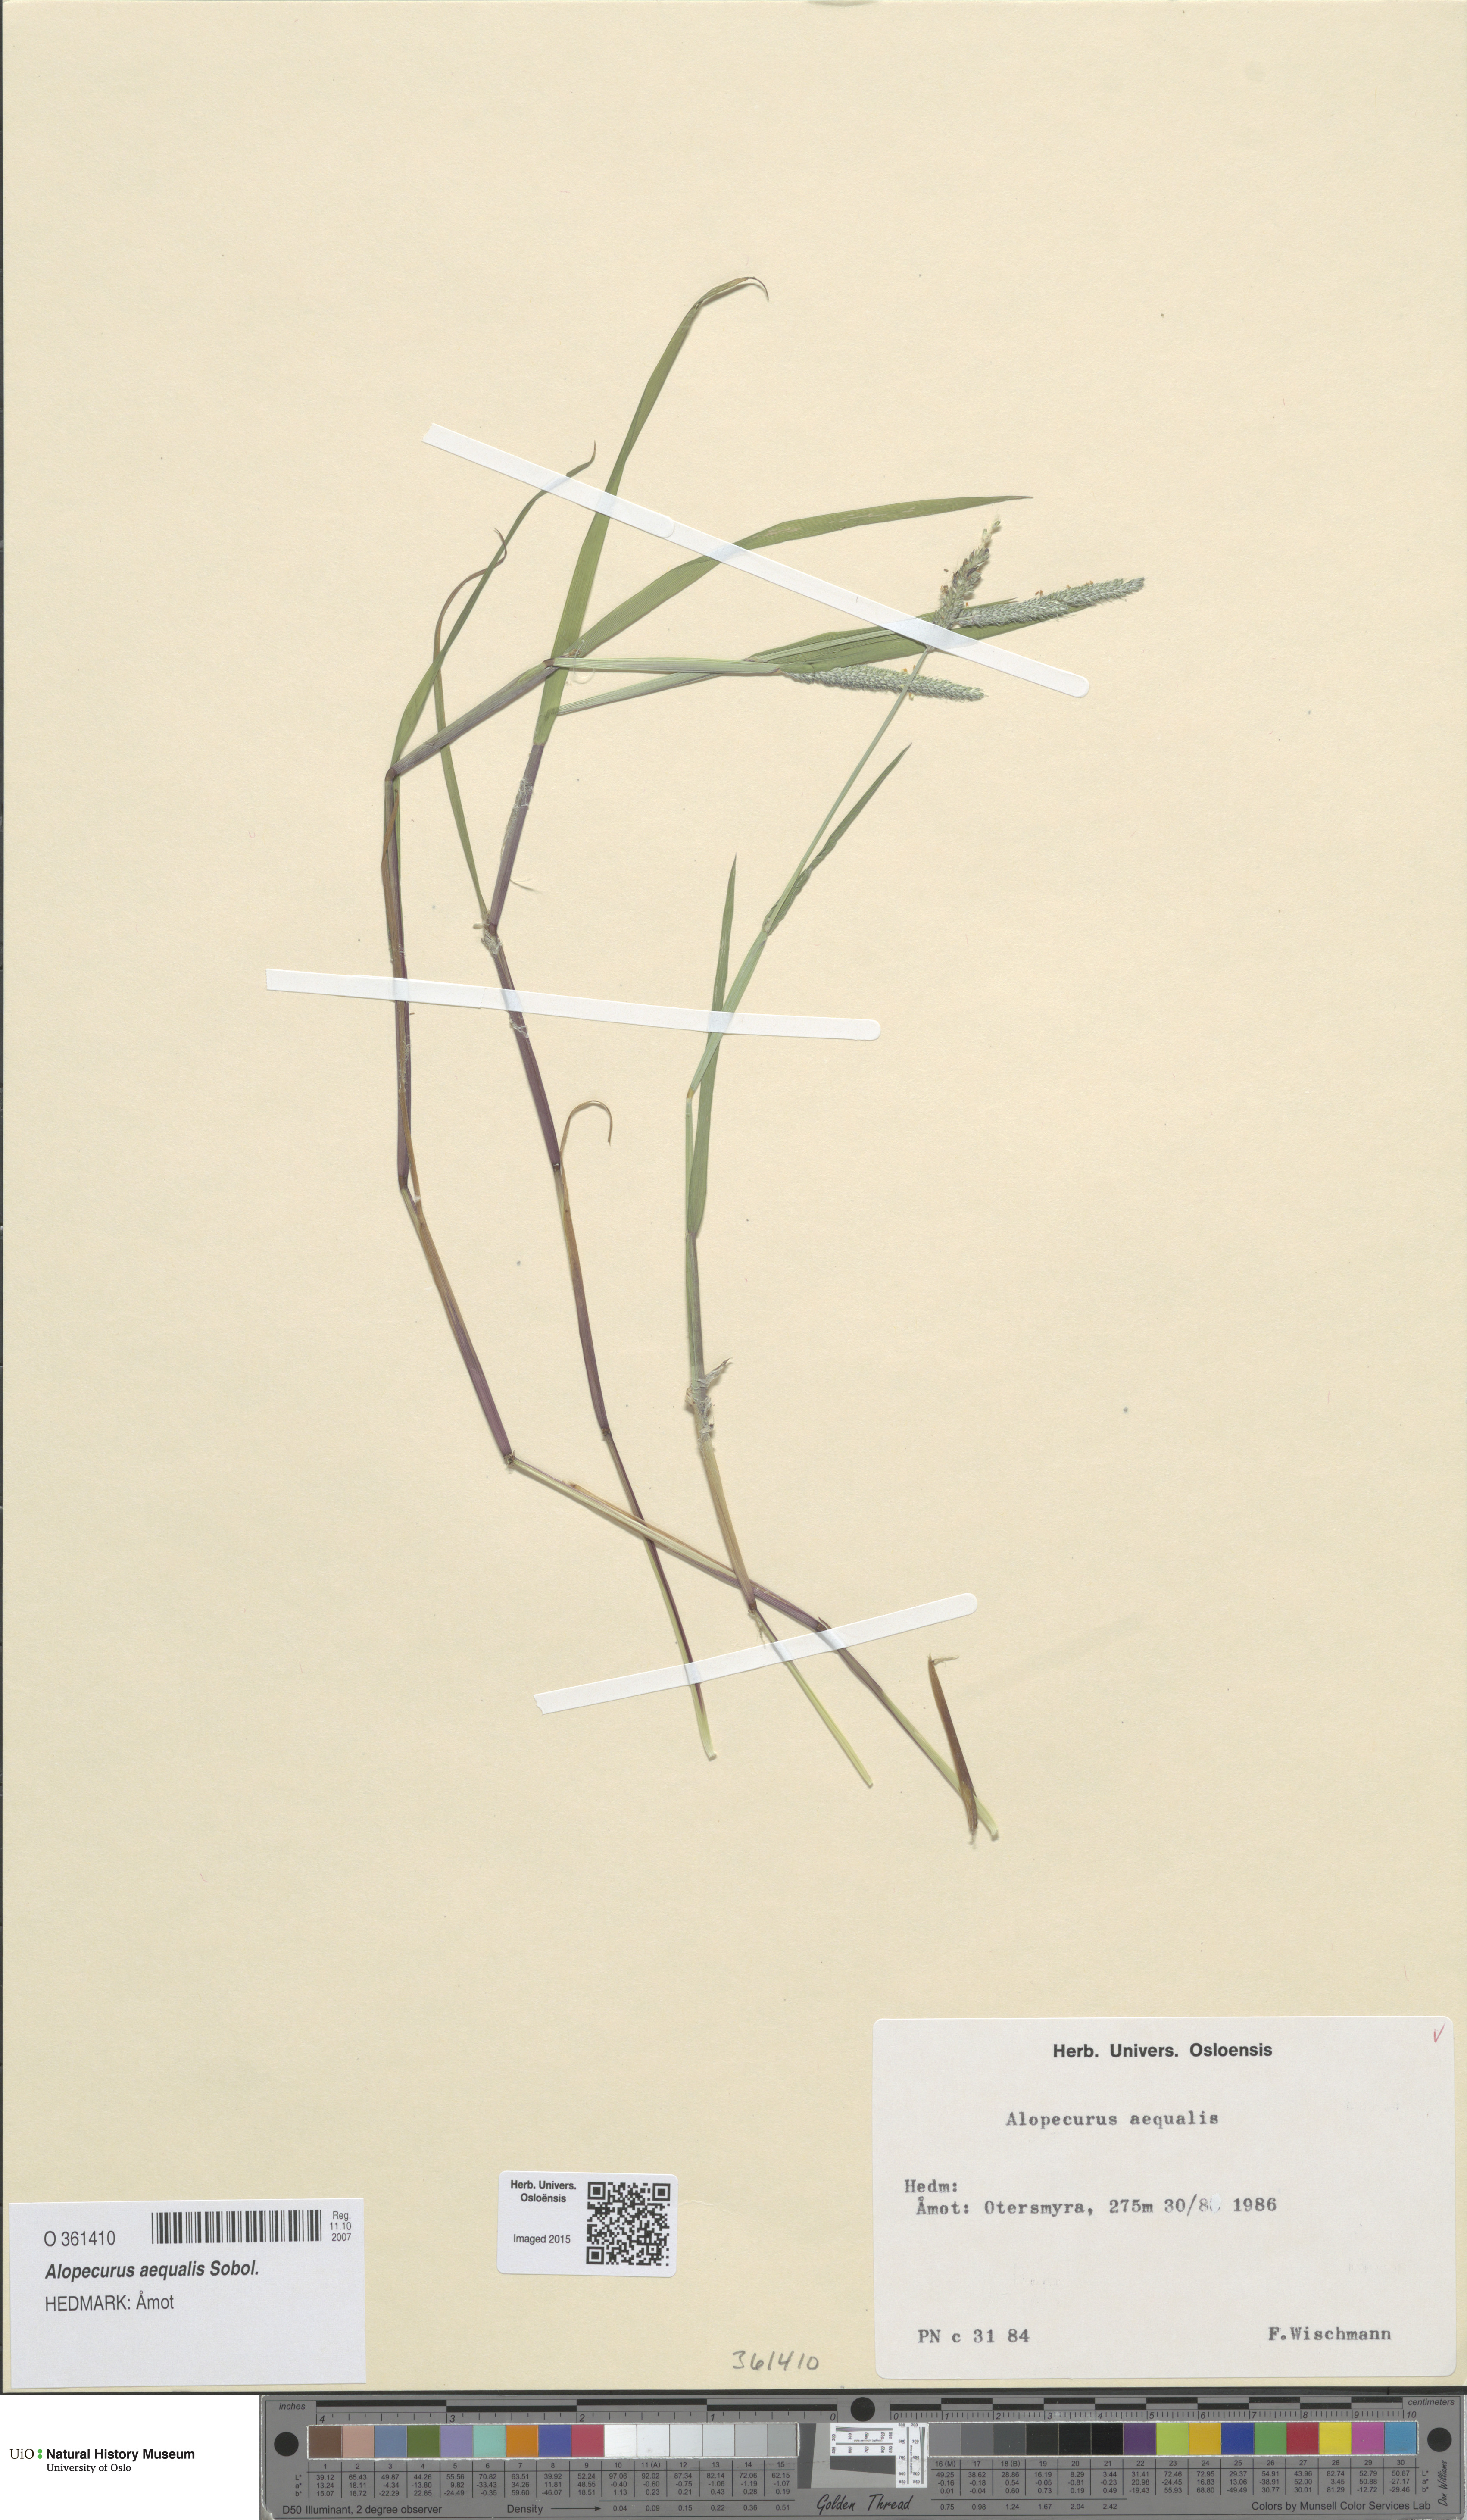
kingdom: Plantae
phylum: Tracheophyta
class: Liliopsida
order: Poales
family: Poaceae
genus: Alopecurus
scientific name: Alopecurus aequalis
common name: Orange foxtail
